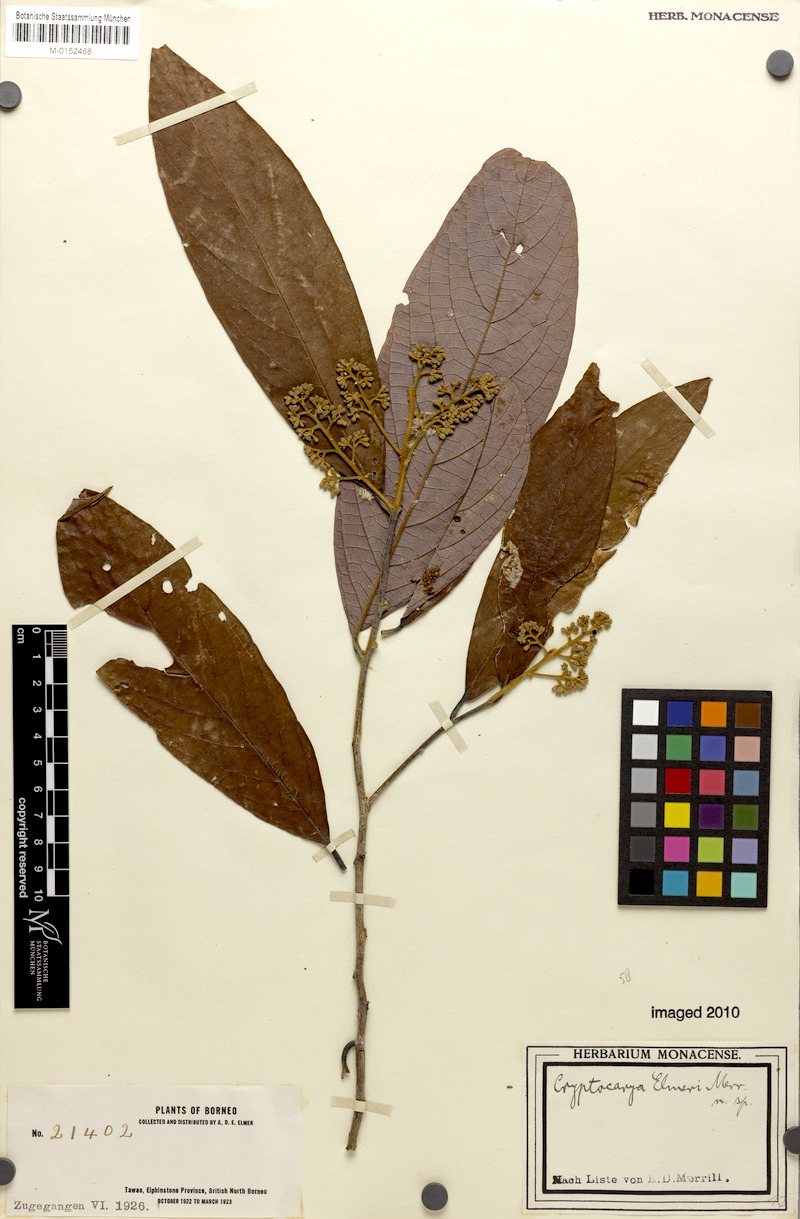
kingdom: Plantae
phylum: Tracheophyta
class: Magnoliopsida
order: Laurales
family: Lauraceae
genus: Cryptocarya
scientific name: Cryptocarya teysmanniana
